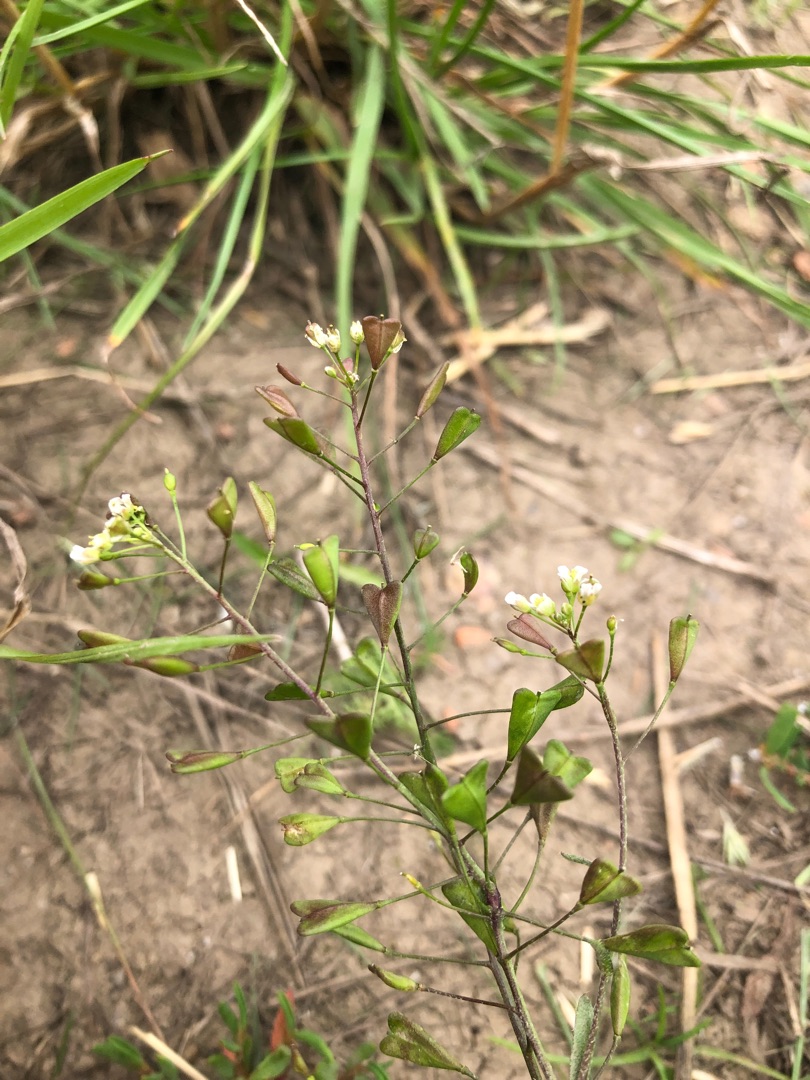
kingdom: Plantae
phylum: Tracheophyta
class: Magnoliopsida
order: Brassicales
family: Brassicaceae
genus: Capsella
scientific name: Capsella bursa-pastoris
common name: Hyrdetaske
